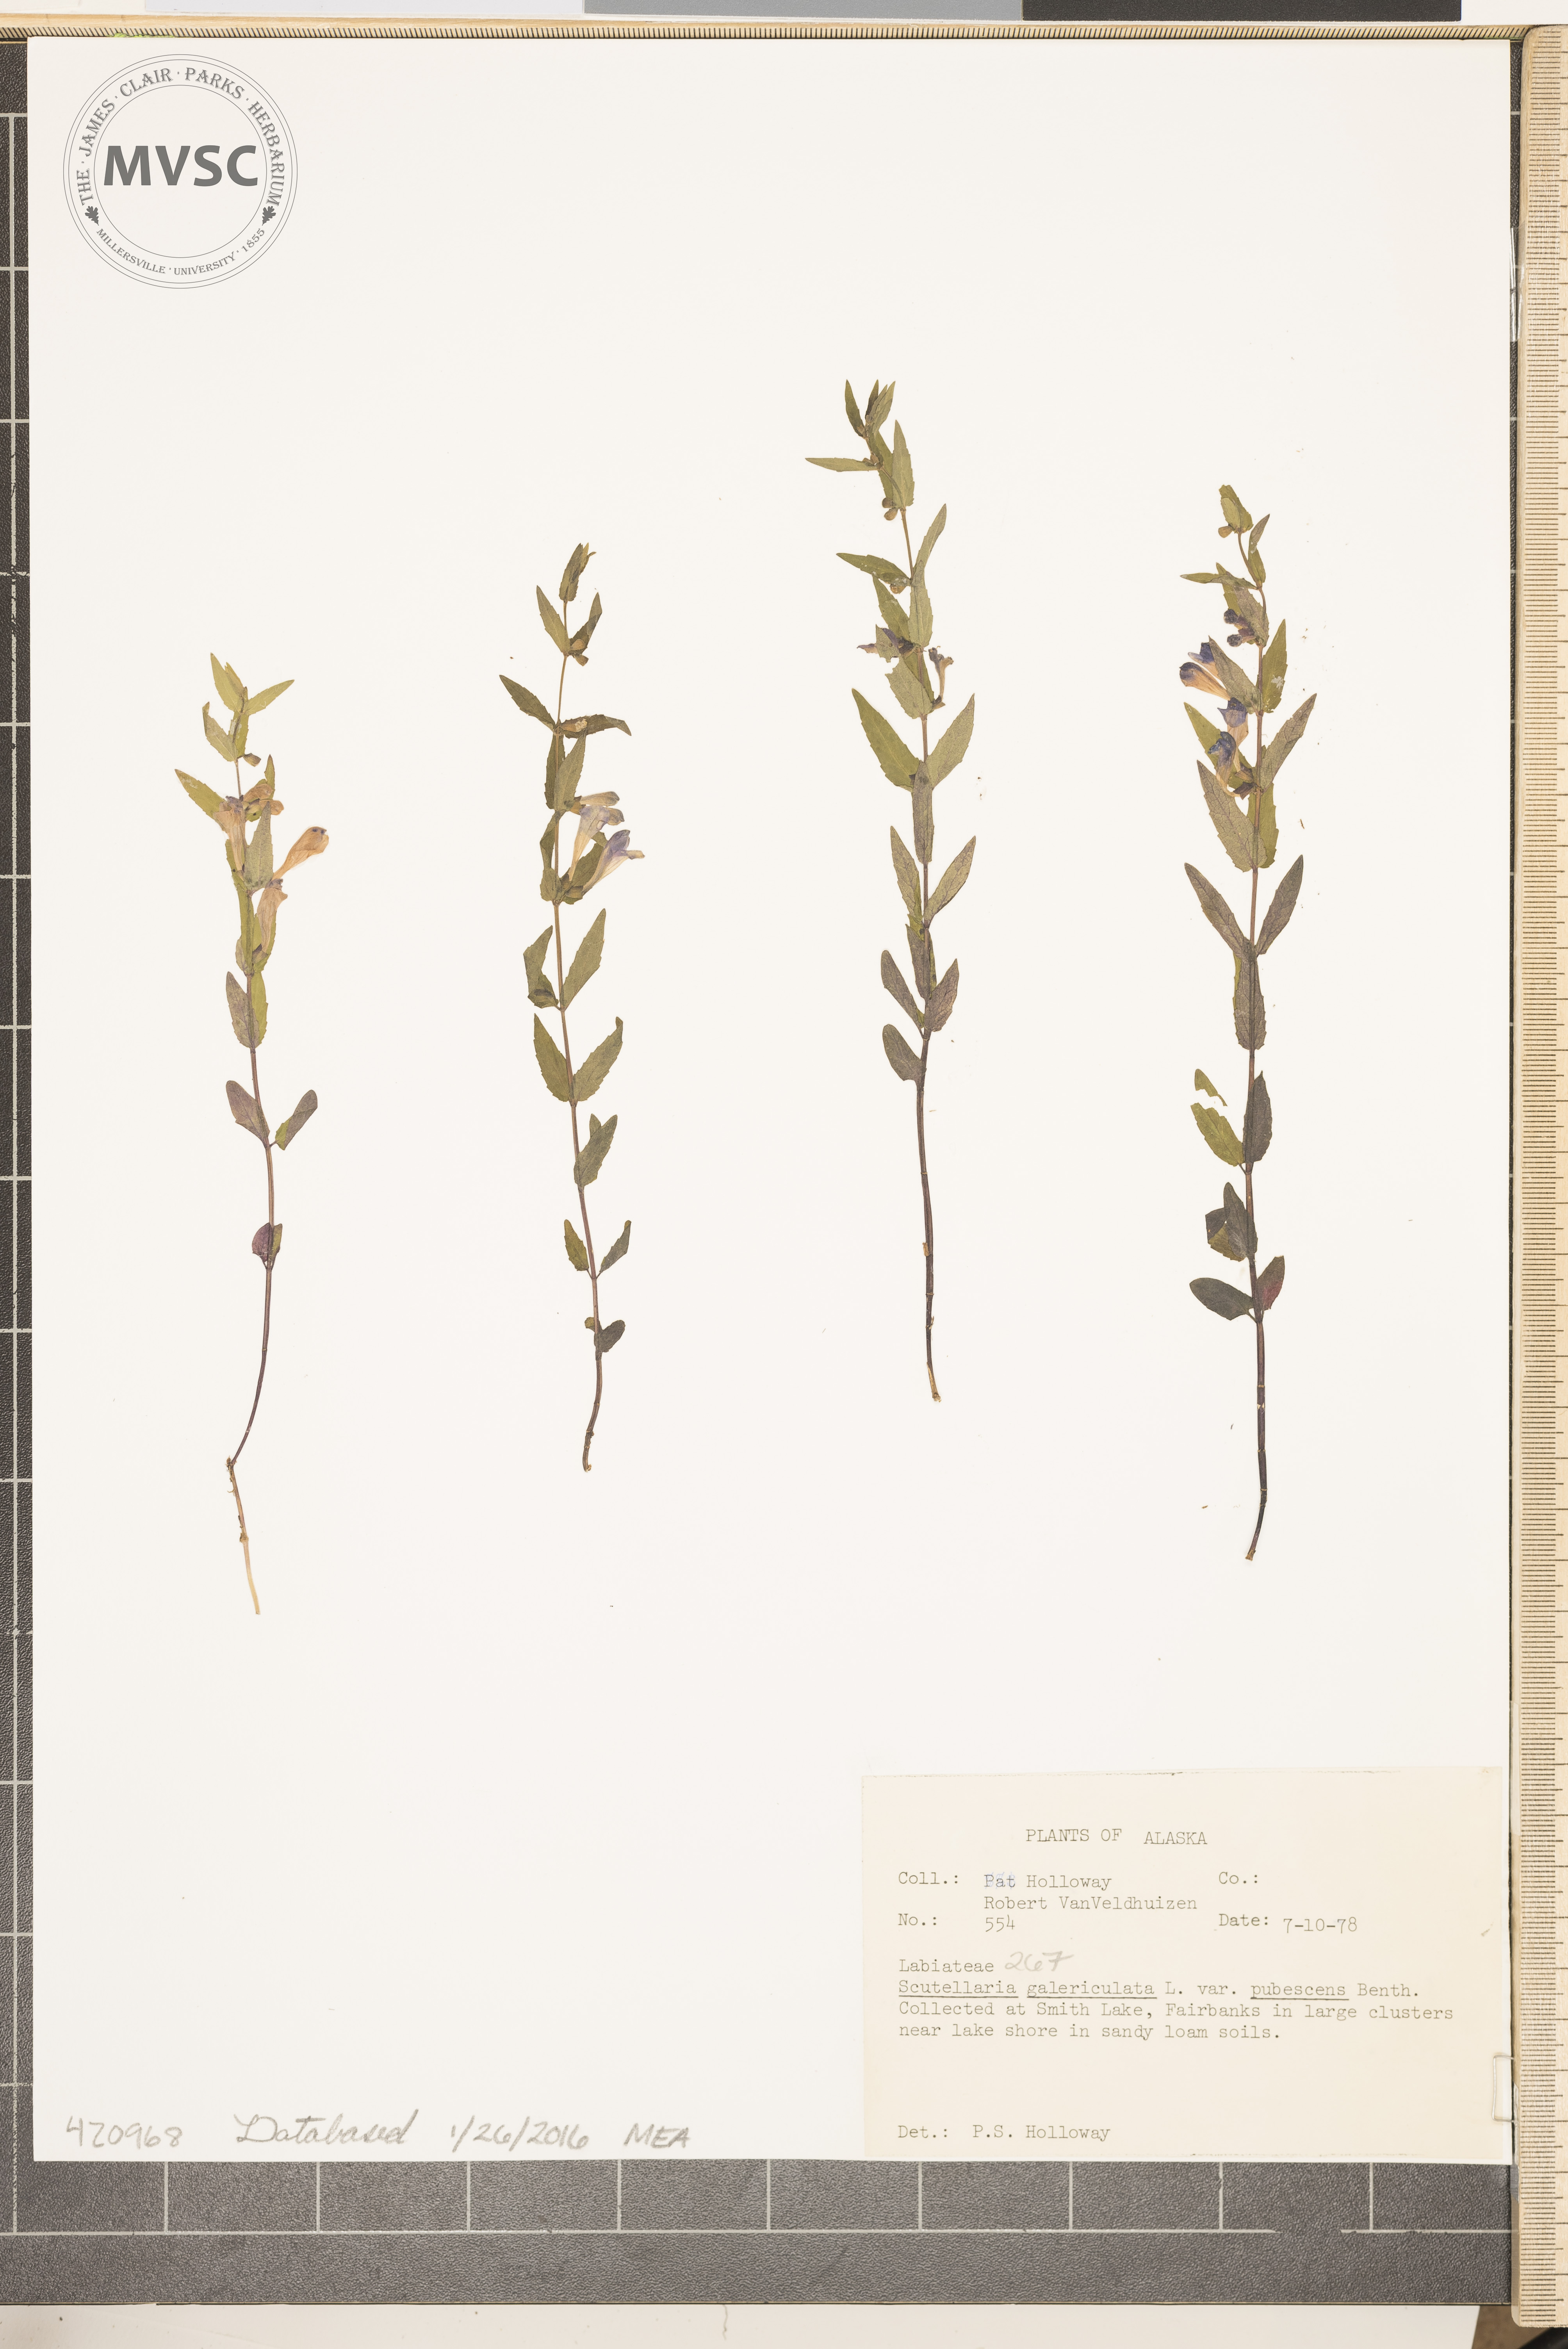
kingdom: Plantae
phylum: Tracheophyta
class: Magnoliopsida
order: Lamiales
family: Lamiaceae
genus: Scutellaria
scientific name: Scutellaria galericulata
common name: Hooded skullcap
